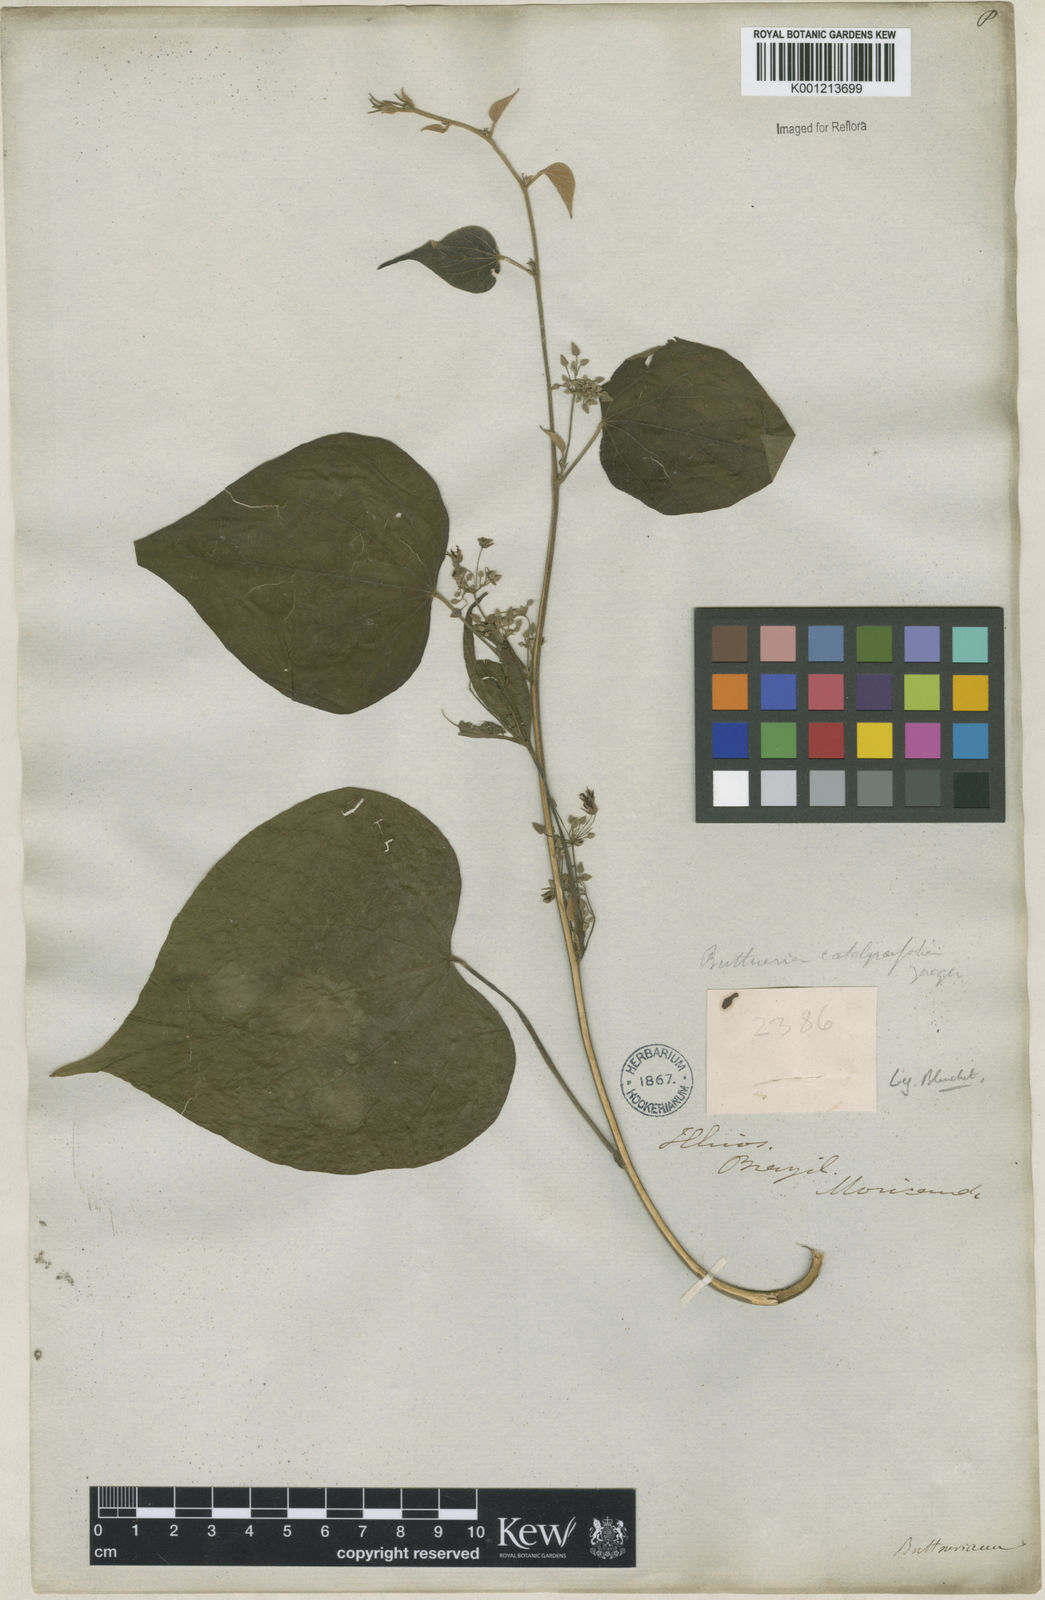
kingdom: Plantae
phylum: Tracheophyta
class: Magnoliopsida
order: Malvales
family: Malvaceae
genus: Byttneria
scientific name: Byttneria catalpifolia
